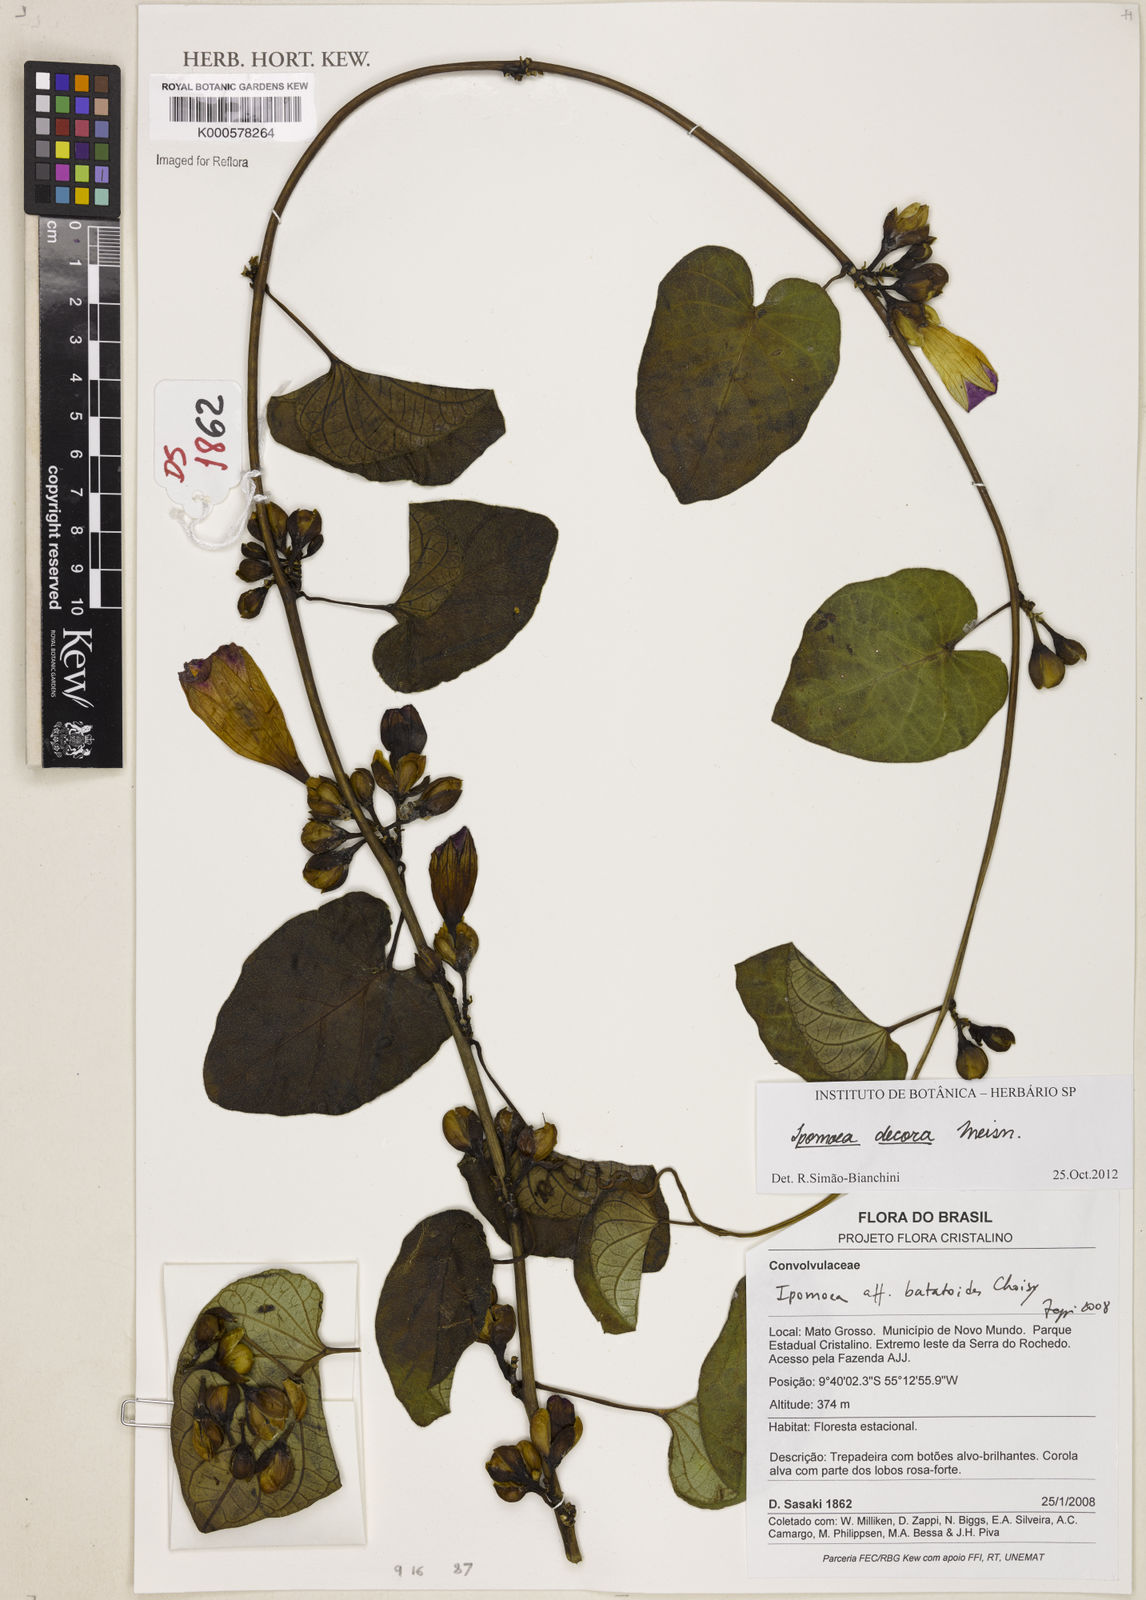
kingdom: Plantae
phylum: Tracheophyta
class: Magnoliopsida
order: Solanales
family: Convolvulaceae
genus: Ipomoea
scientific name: Ipomoea batatoides
